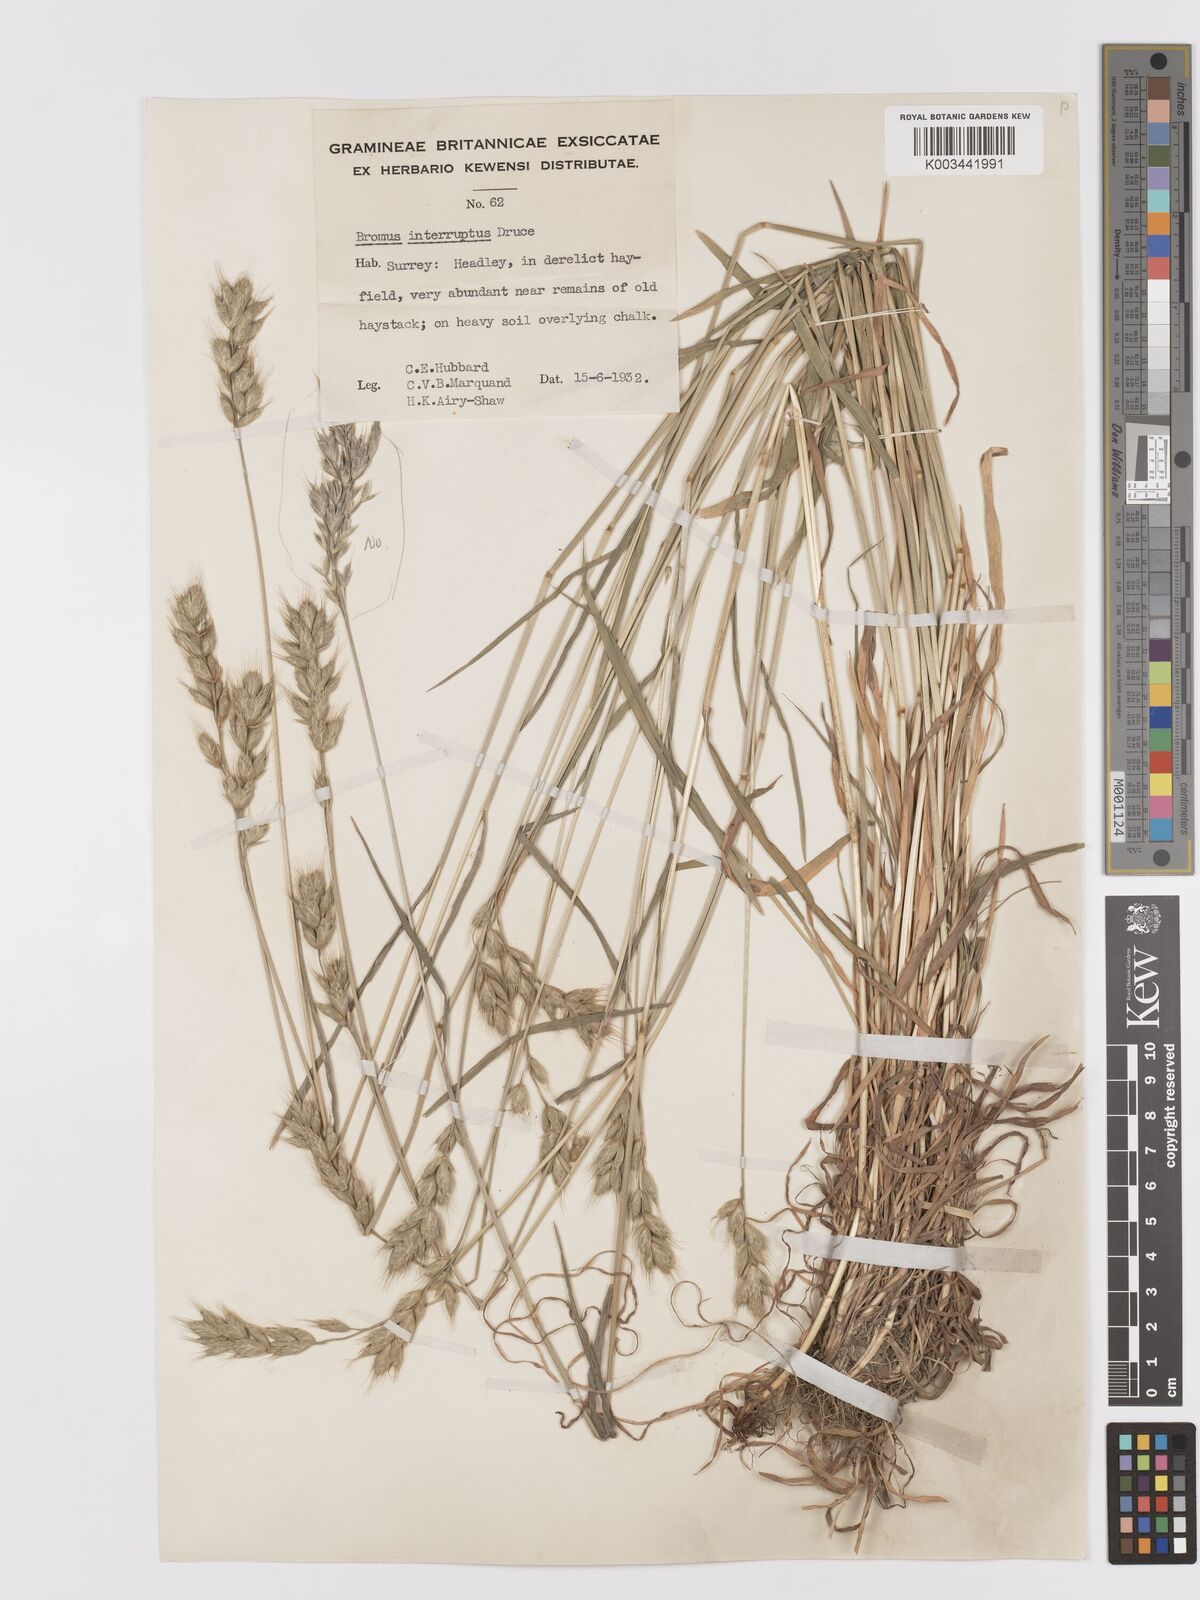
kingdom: Plantae
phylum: Tracheophyta
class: Liliopsida
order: Poales
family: Poaceae
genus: Bromus
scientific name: Bromus interruptus
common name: Interrupted brome
